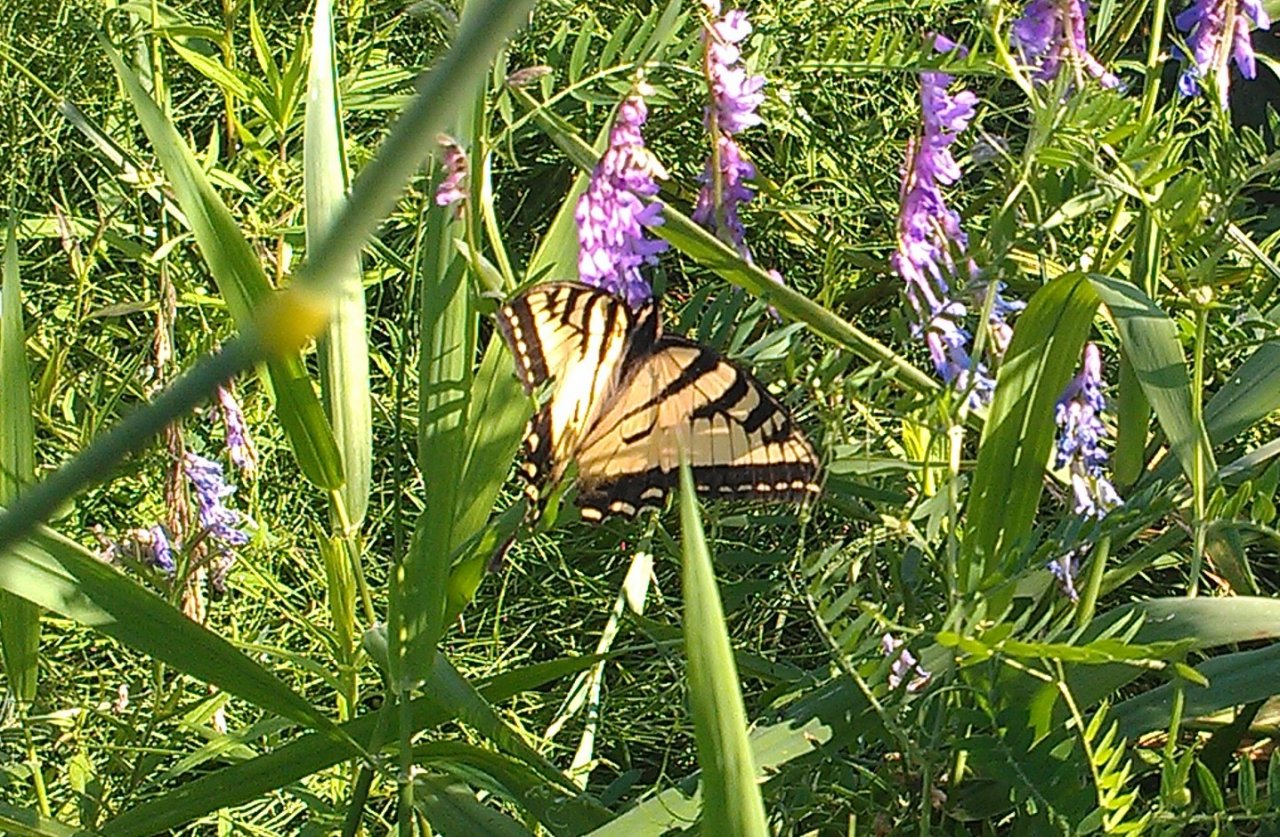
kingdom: Animalia
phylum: Arthropoda
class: Insecta
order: Lepidoptera
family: Papilionidae
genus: Pterourus
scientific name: Pterourus canadensis
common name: Canadian Tiger Swallowtail
